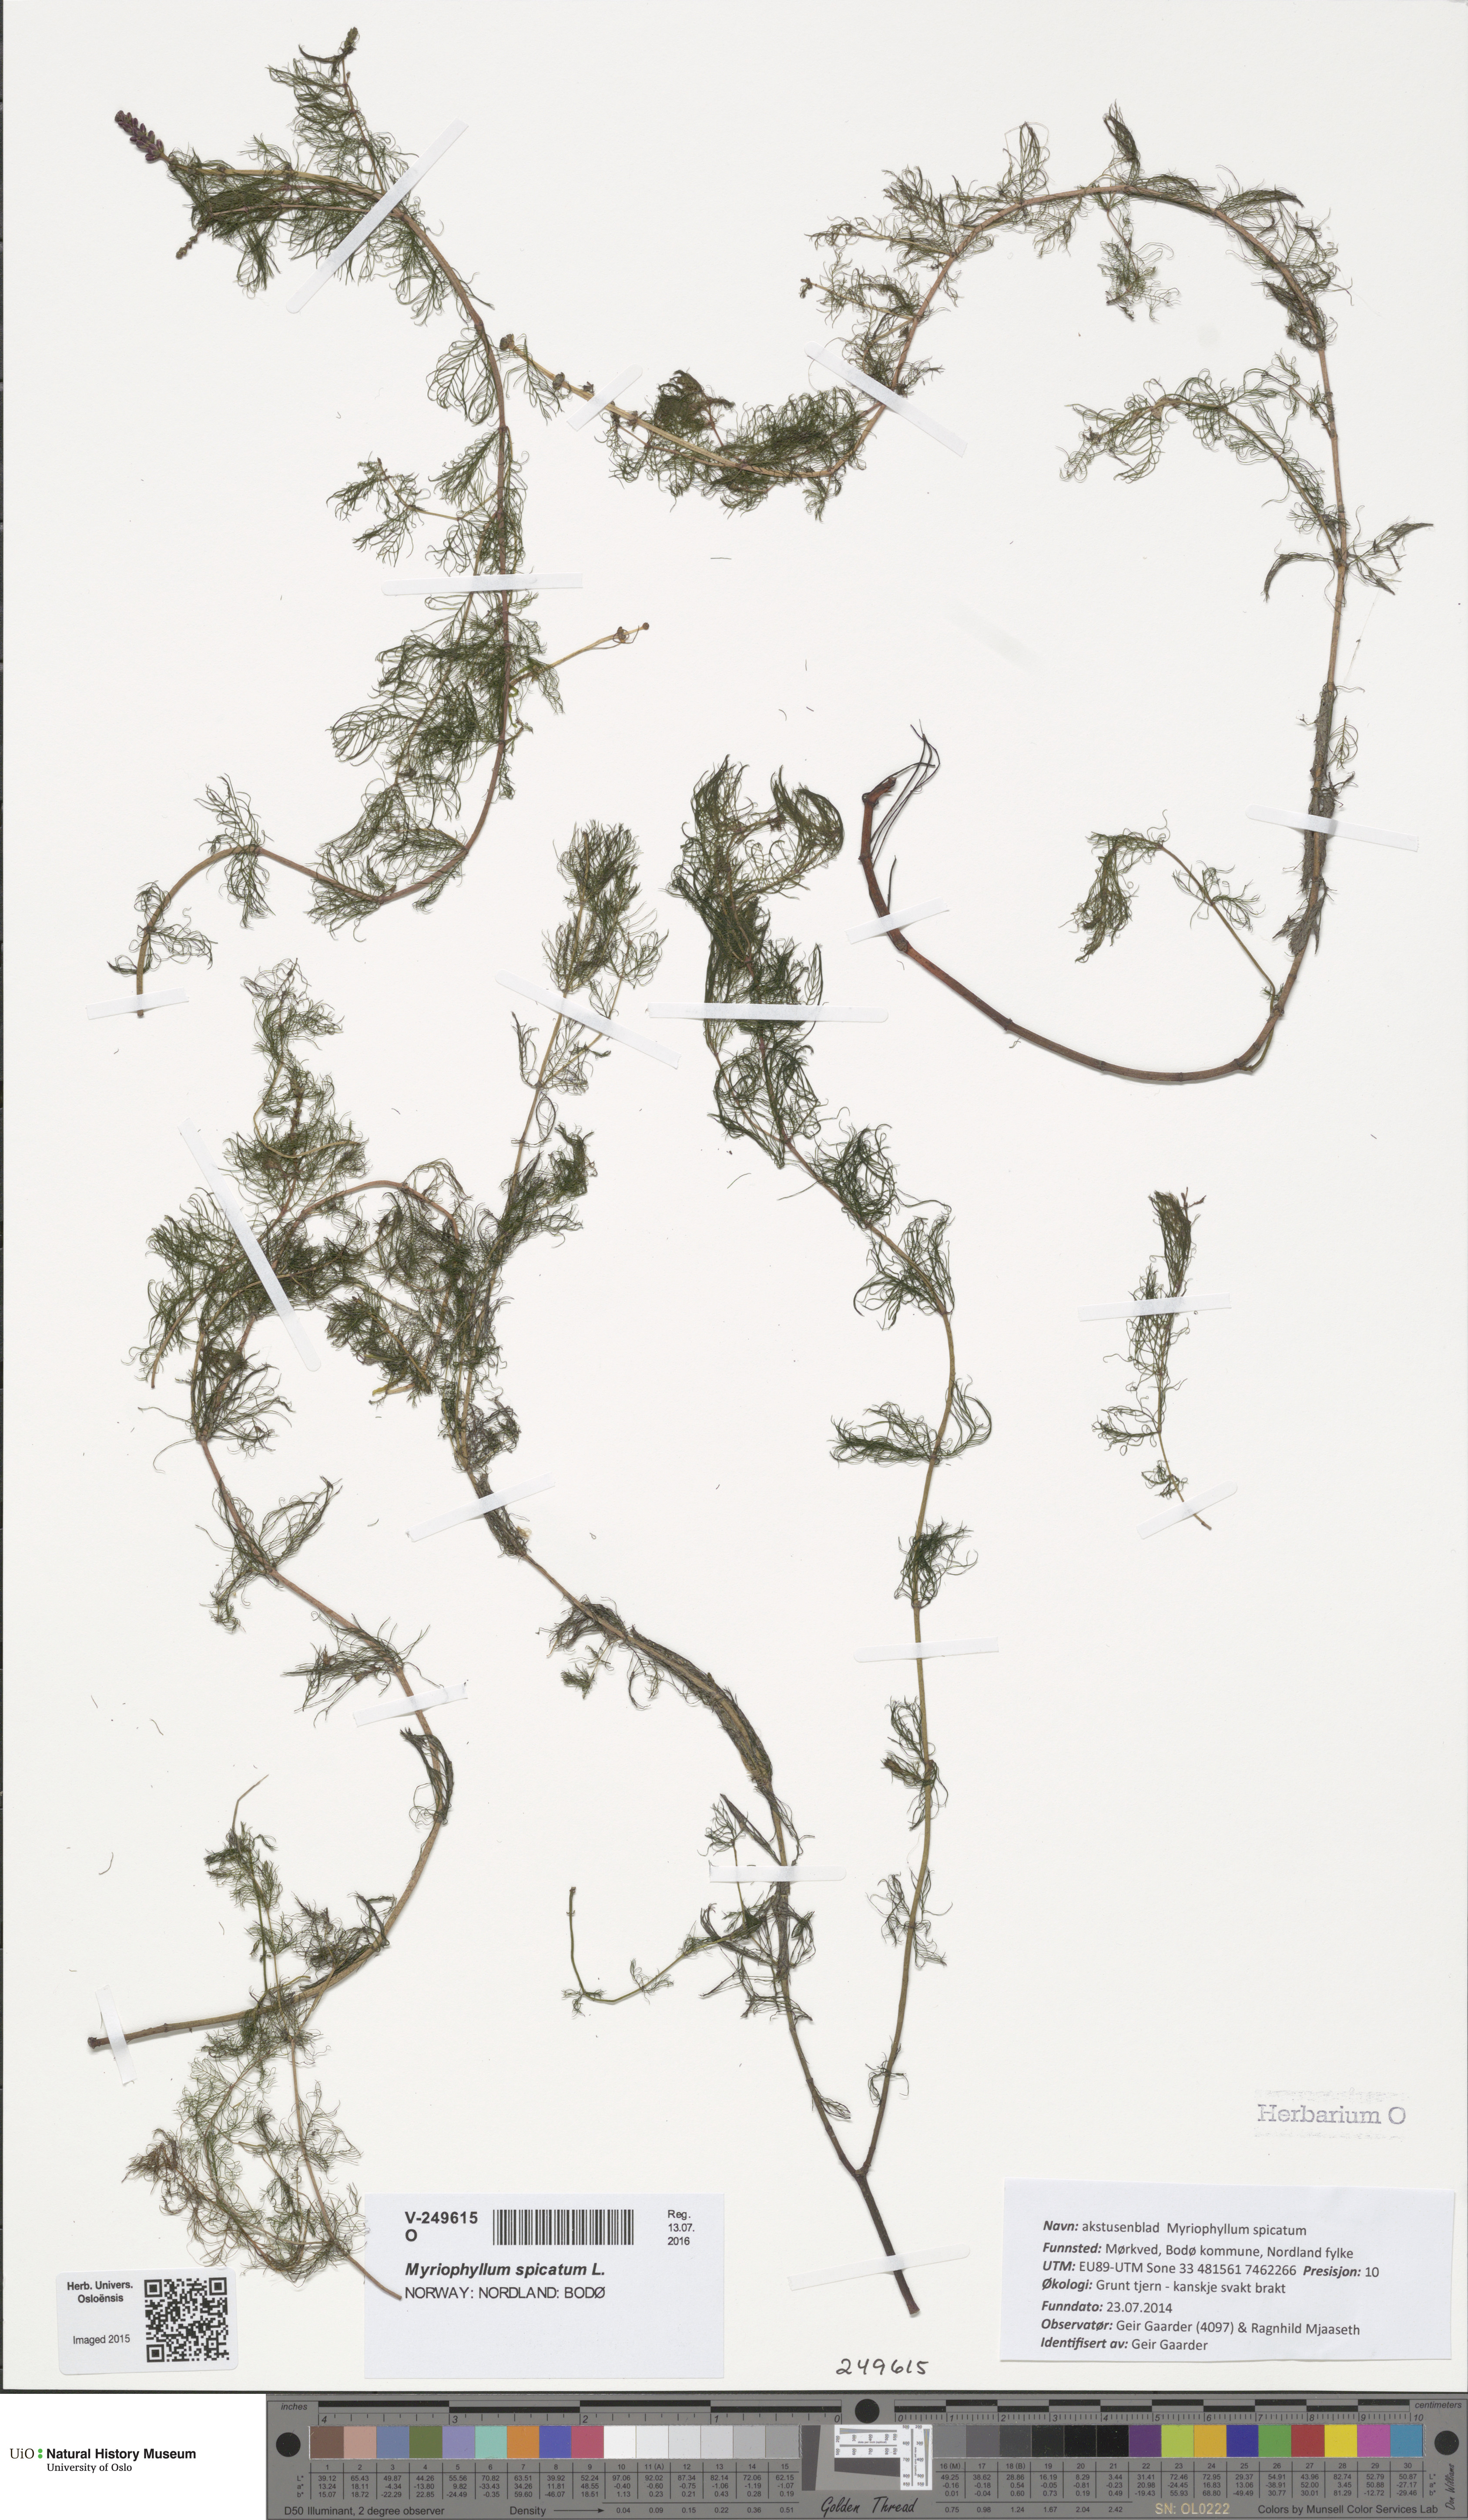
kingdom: Plantae
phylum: Tracheophyta
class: Magnoliopsida
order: Saxifragales
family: Haloragaceae
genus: Myriophyllum
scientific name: Myriophyllum spicatum
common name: Spiked water-milfoil
